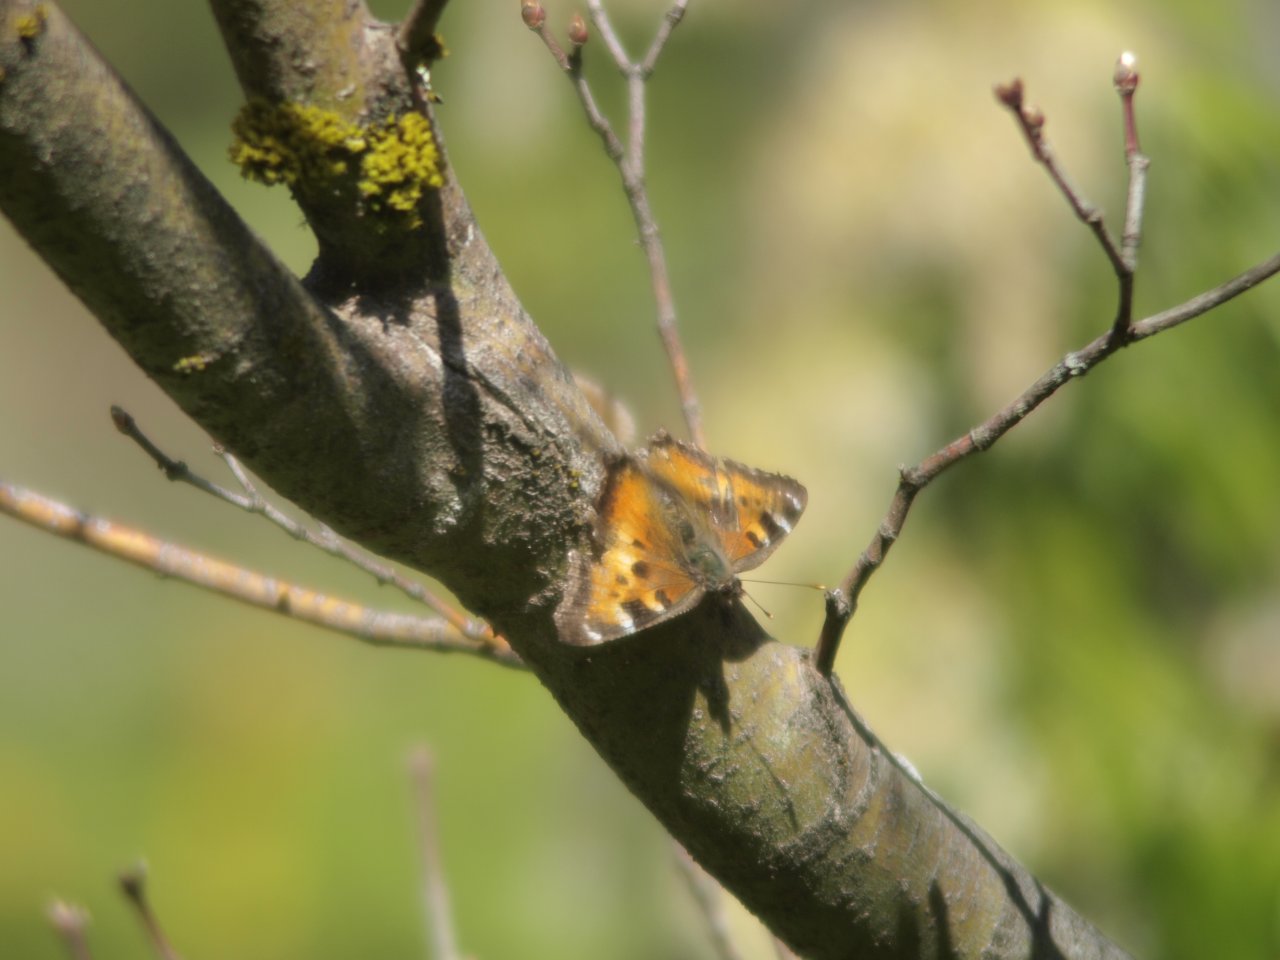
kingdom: Animalia
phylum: Arthropoda
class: Insecta
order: Lepidoptera
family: Nymphalidae
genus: Nymphalis
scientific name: Nymphalis californica
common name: California Tortoiseshell
